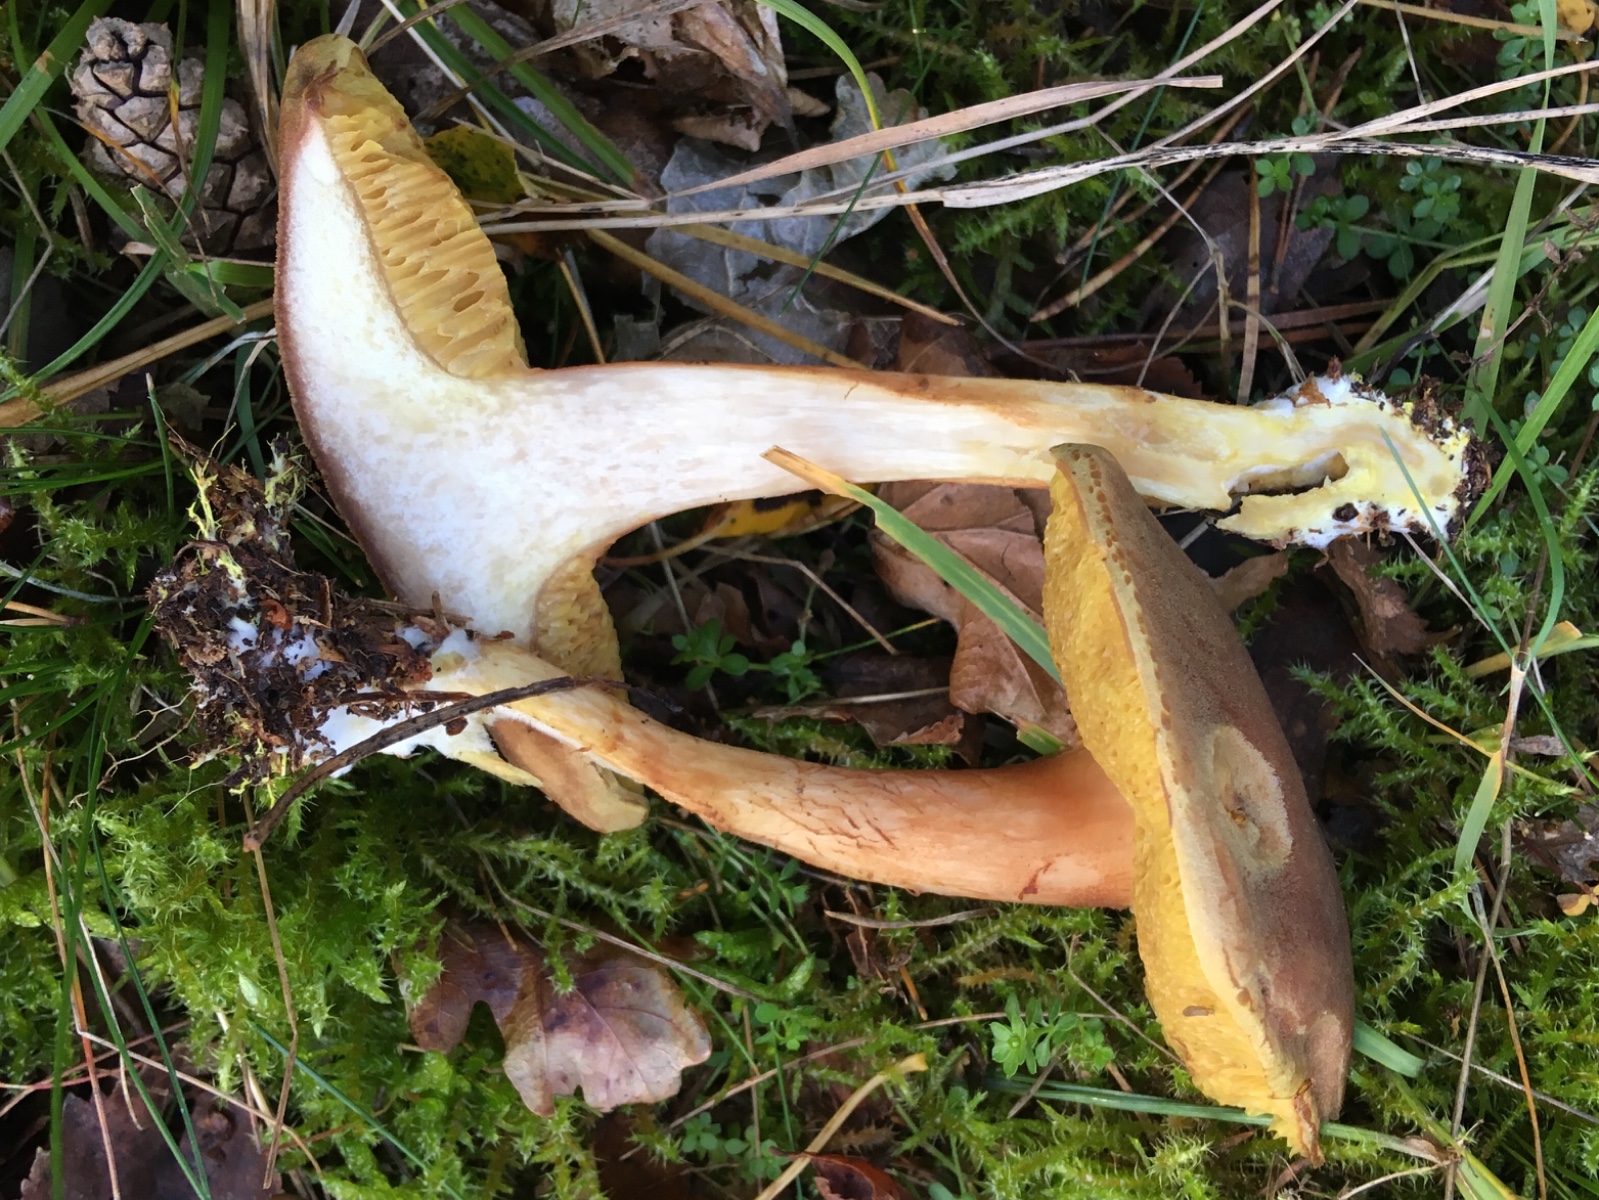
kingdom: Fungi
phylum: Basidiomycota
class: Agaricomycetes
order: Boletales
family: Boletaceae
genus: Xerocomus
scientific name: Xerocomus ferrugineus
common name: vaskeskinds-rørhat
